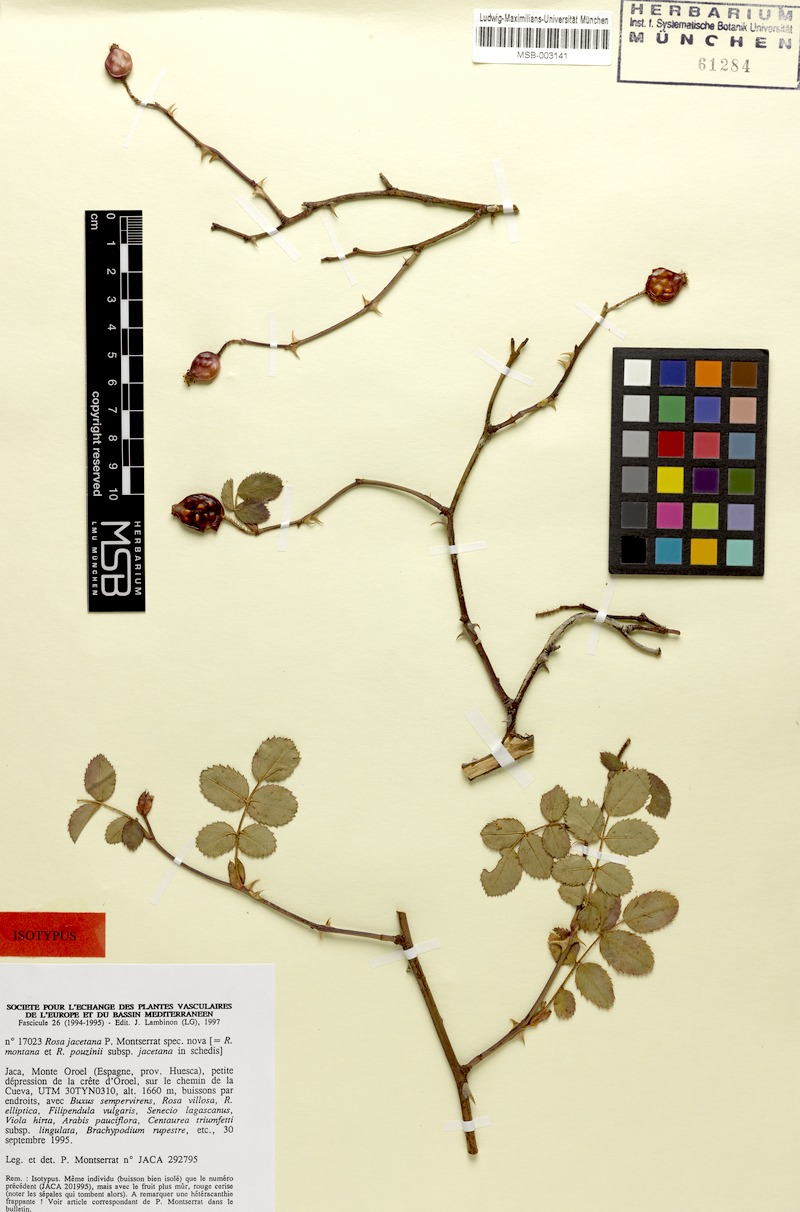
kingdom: Plantae
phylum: Tracheophyta
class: Magnoliopsida
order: Rosales
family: Rosaceae
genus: Rosa
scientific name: Rosa pouzinii
